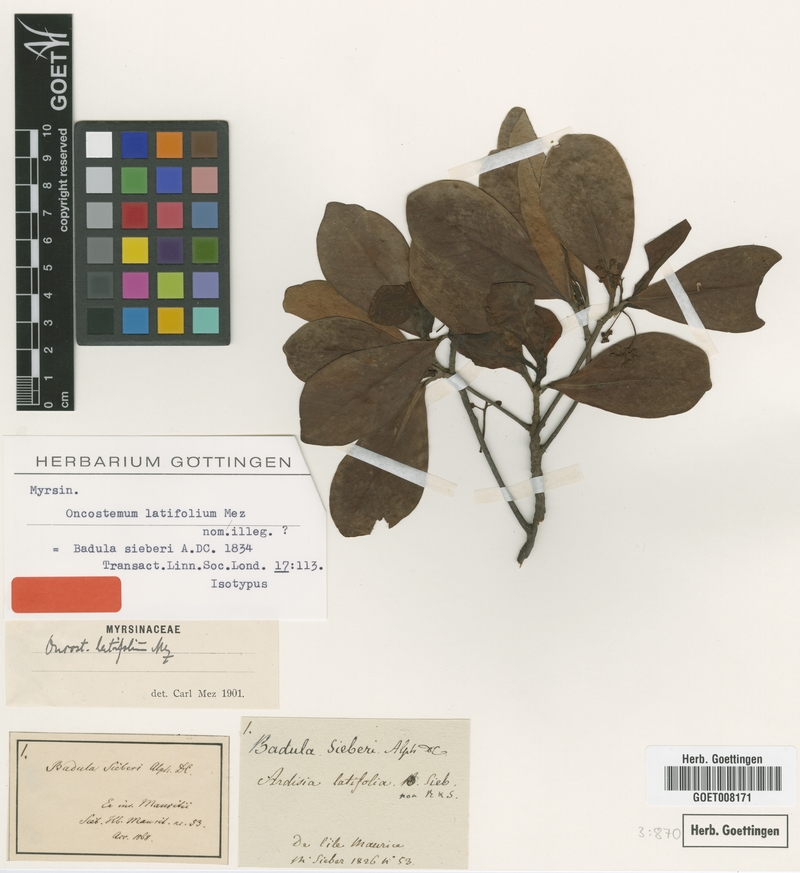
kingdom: Plantae
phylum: Tracheophyta
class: Magnoliopsida
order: Ericales
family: Primulaceae
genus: Badula
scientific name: Badula sieberi
